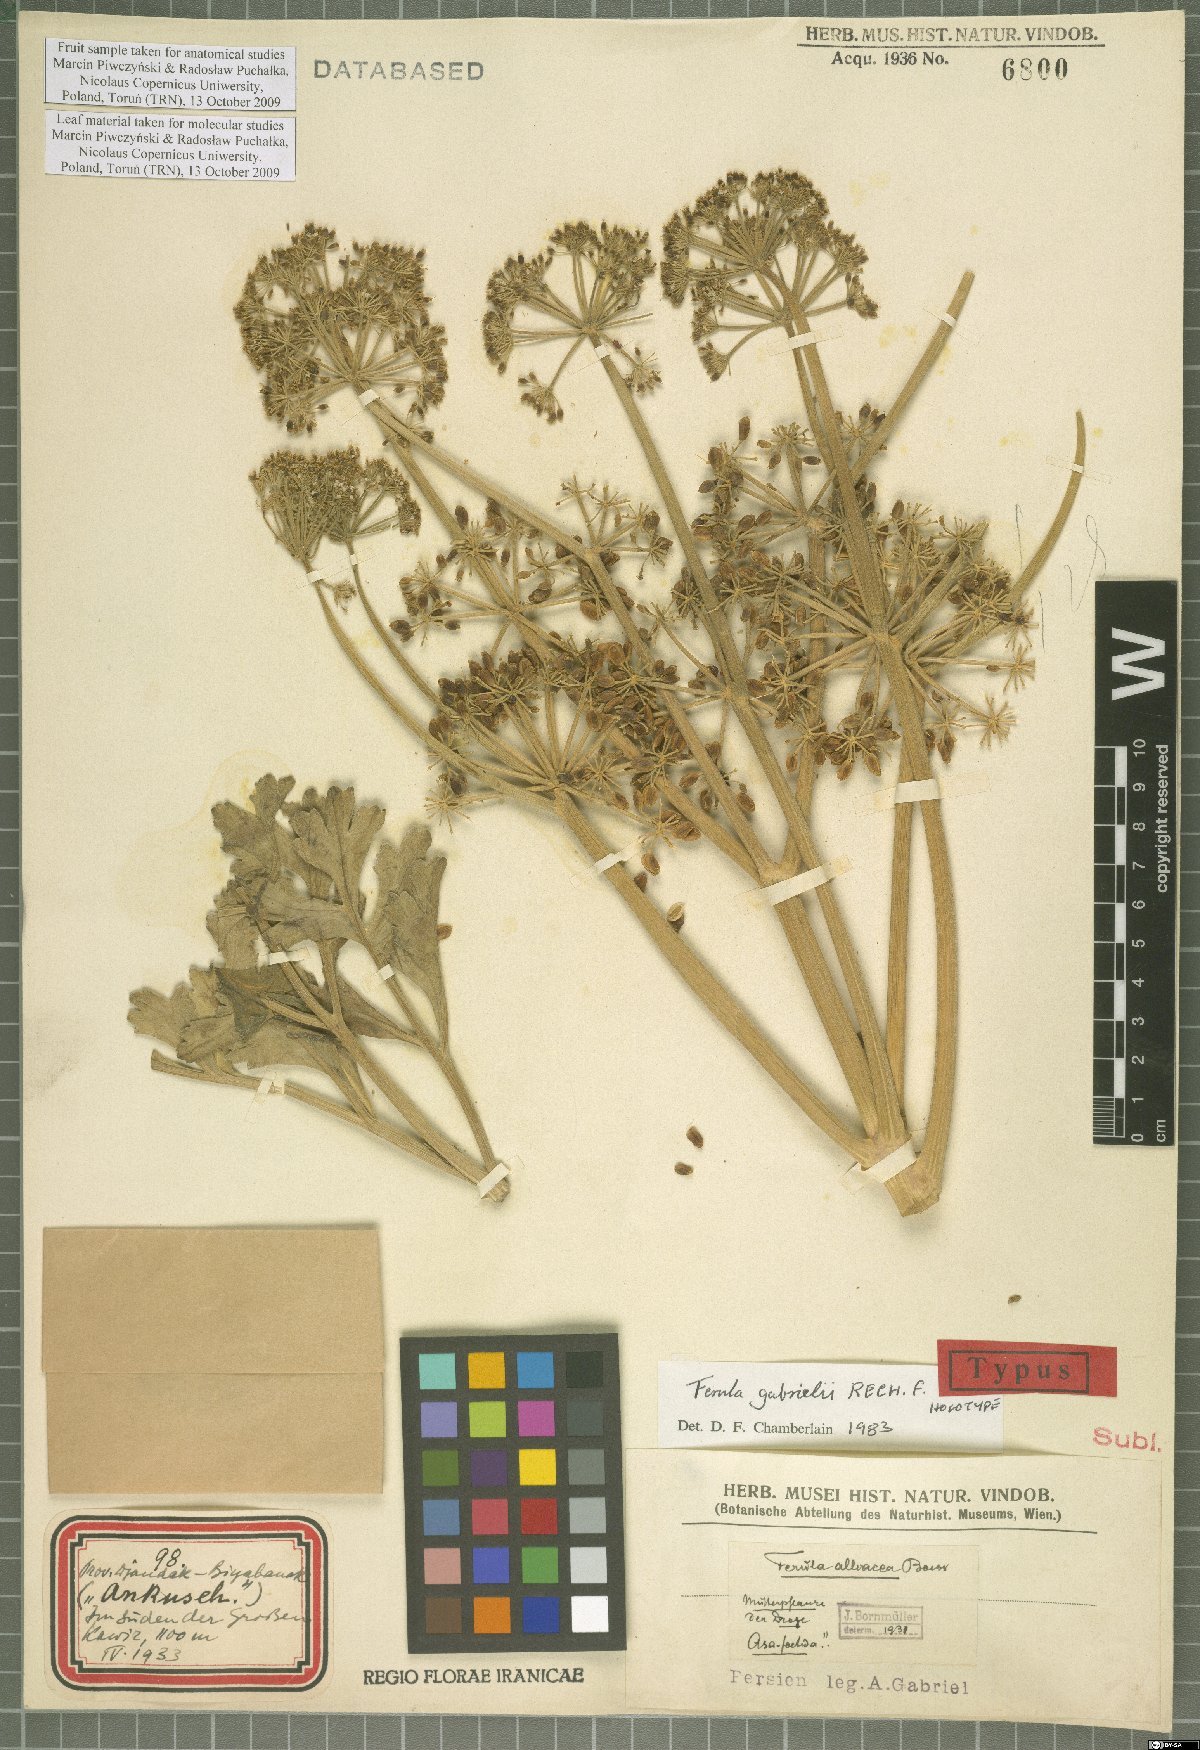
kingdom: Plantae
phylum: Tracheophyta
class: Magnoliopsida
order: Apiales
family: Apiaceae
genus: Ferula
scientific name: Ferula gabrielii
